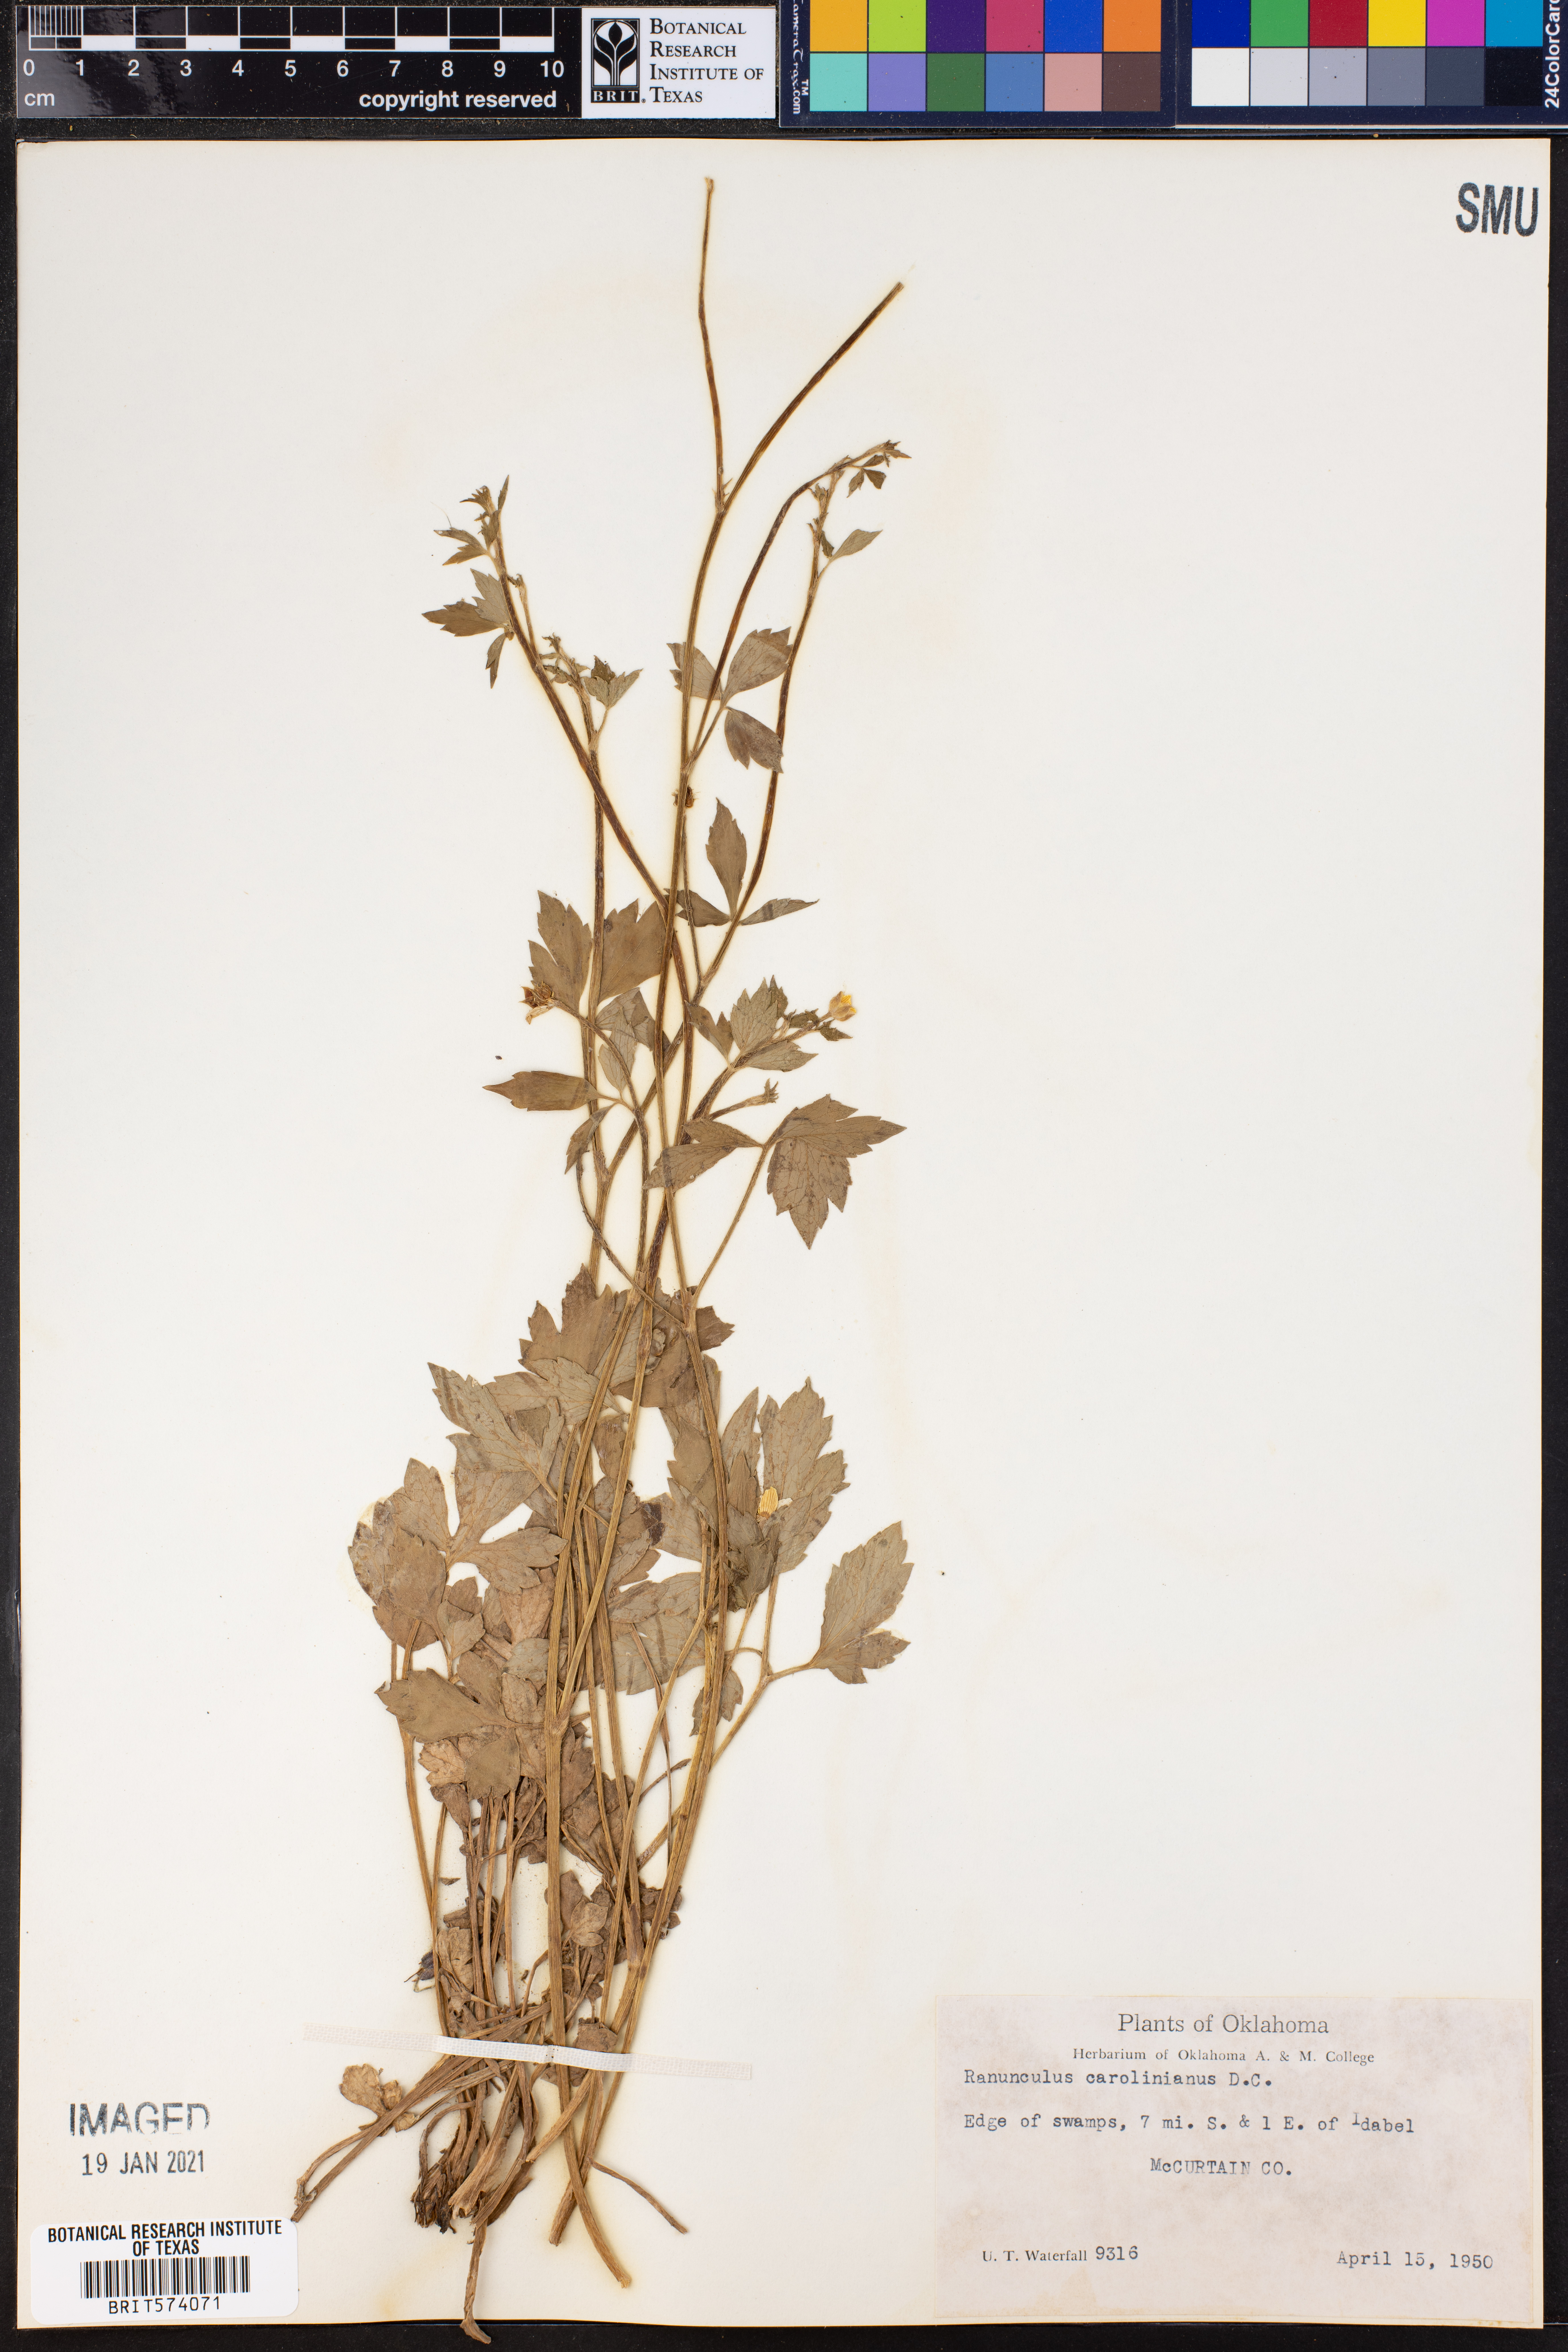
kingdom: Plantae
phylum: Tracheophyta
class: Magnoliopsida
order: Ranunculales
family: Ranunculaceae
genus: Ranunculus
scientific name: Ranunculus hispidus
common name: Bristly buttercup
